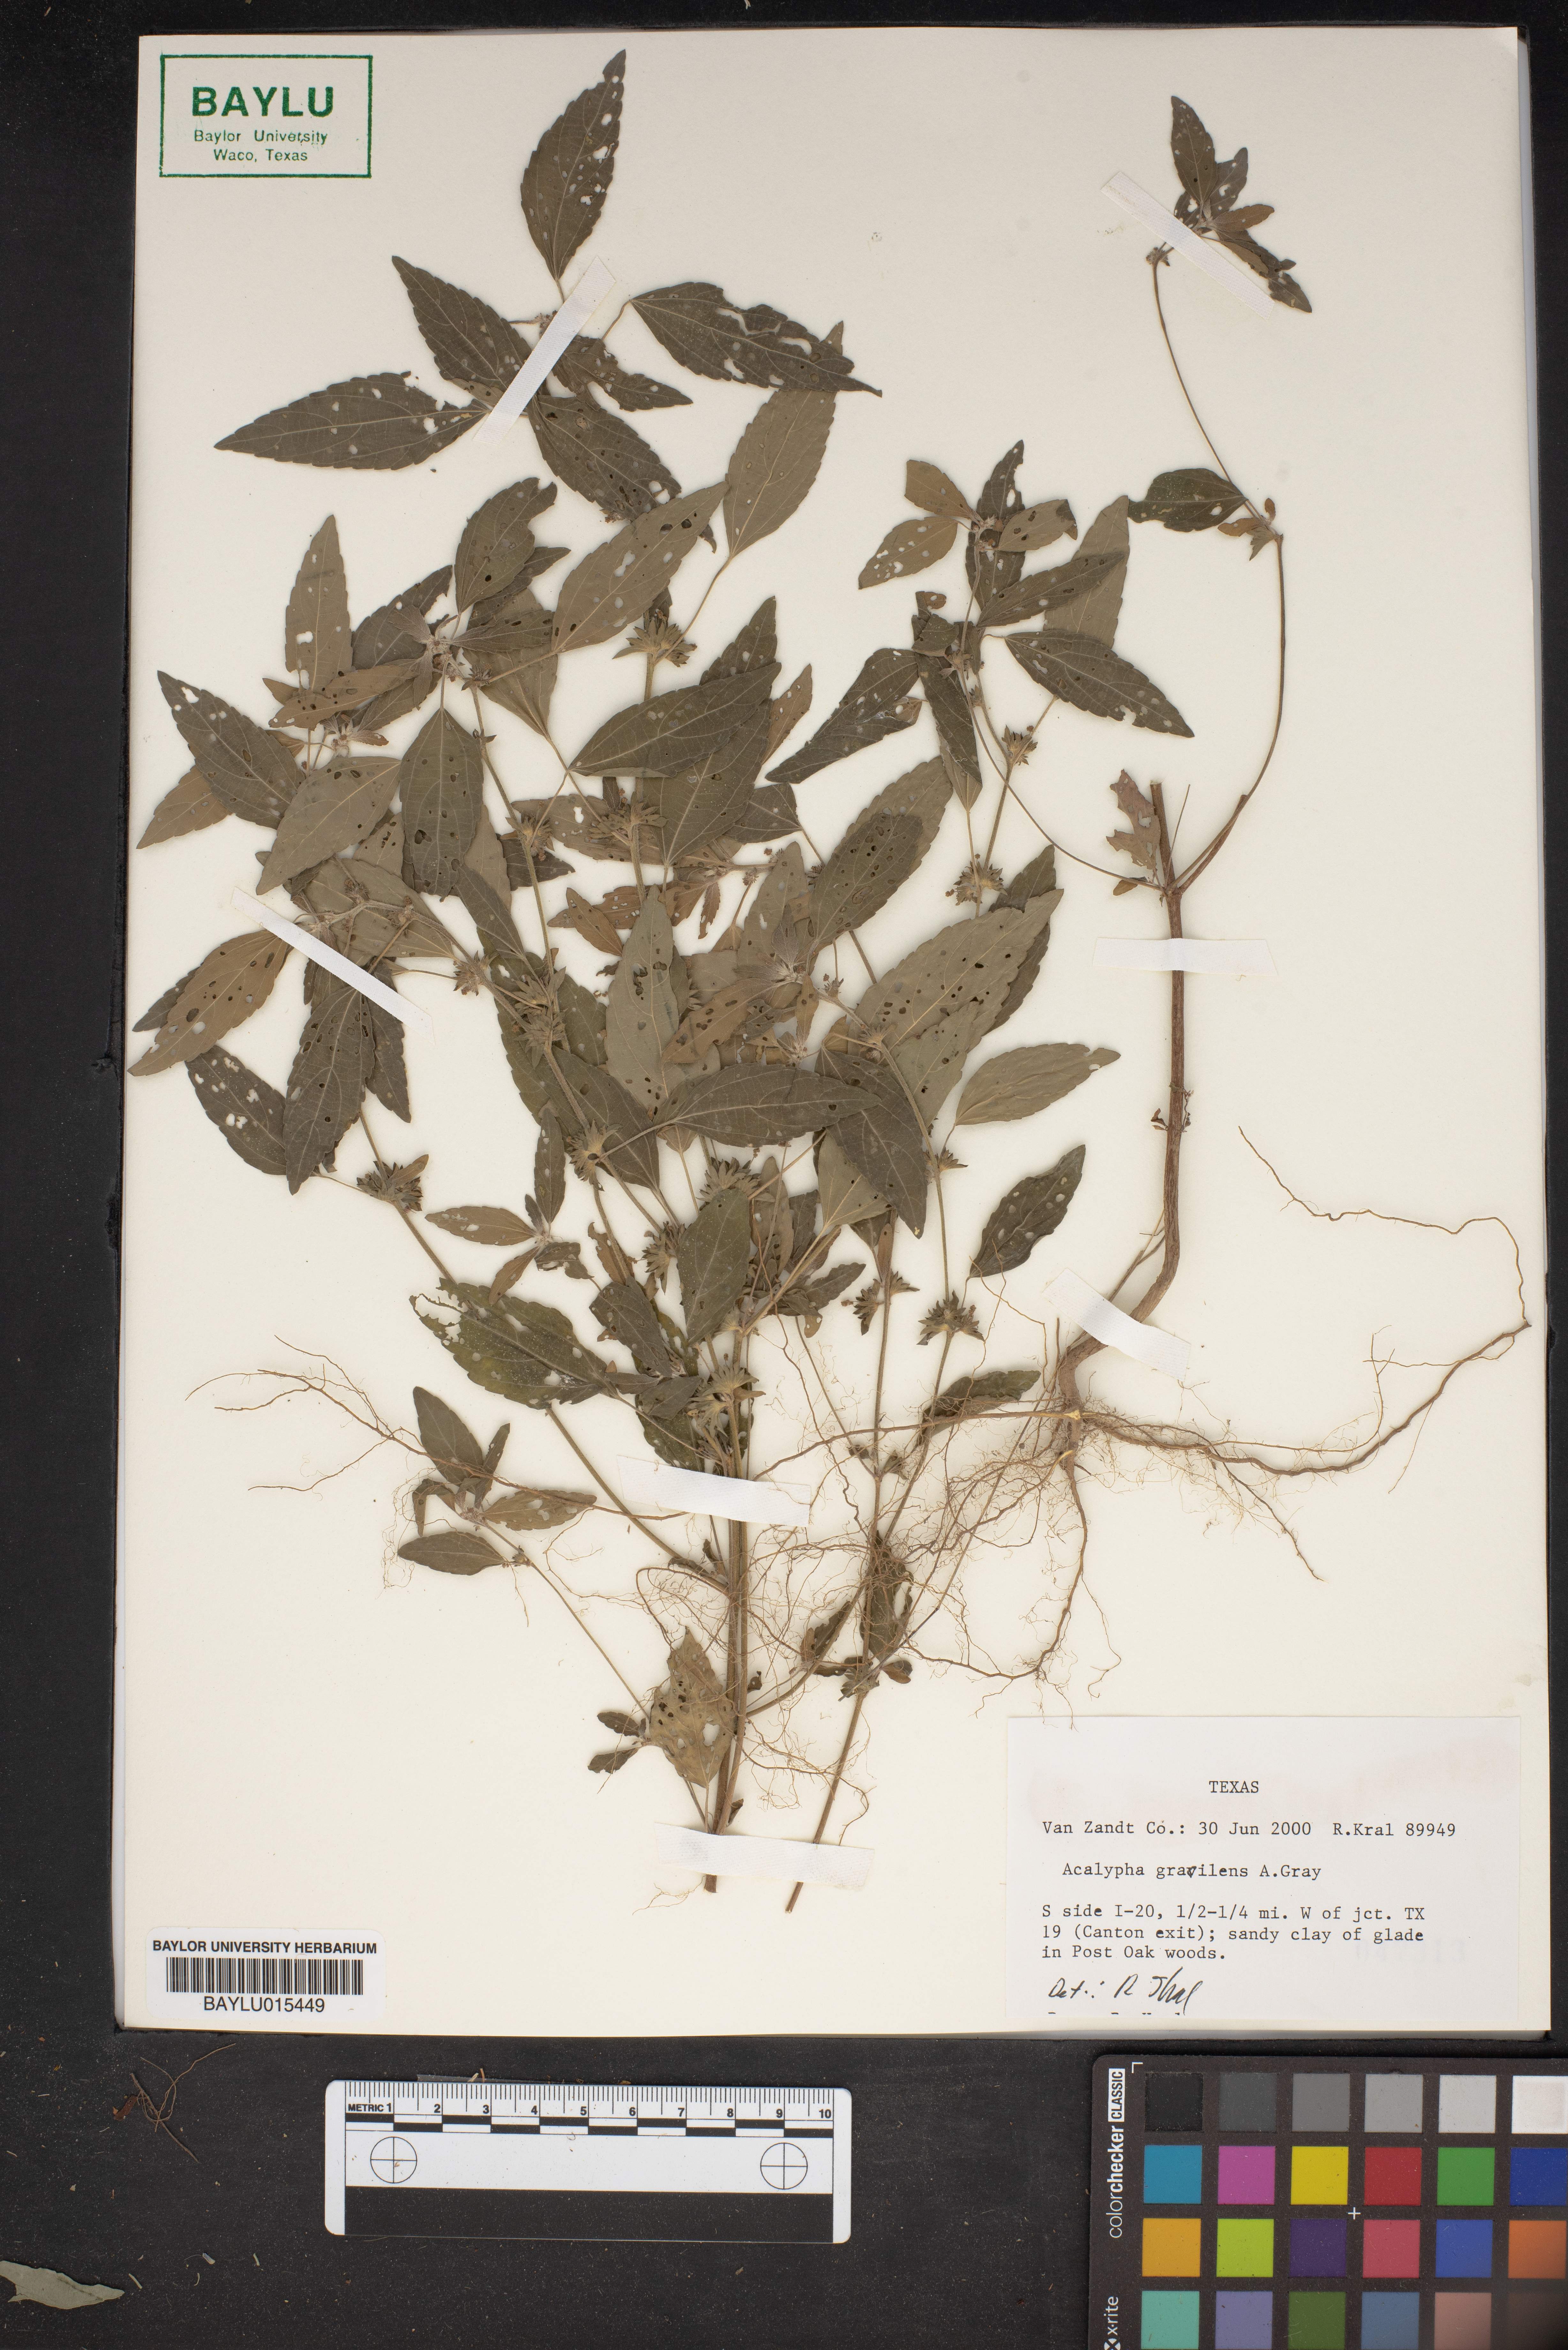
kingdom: Plantae
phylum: Tracheophyta
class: Magnoliopsida
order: Malpighiales
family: Euphorbiaceae
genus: Acalypha
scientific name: Acalypha gracilens
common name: Slender three-seeded mercury
